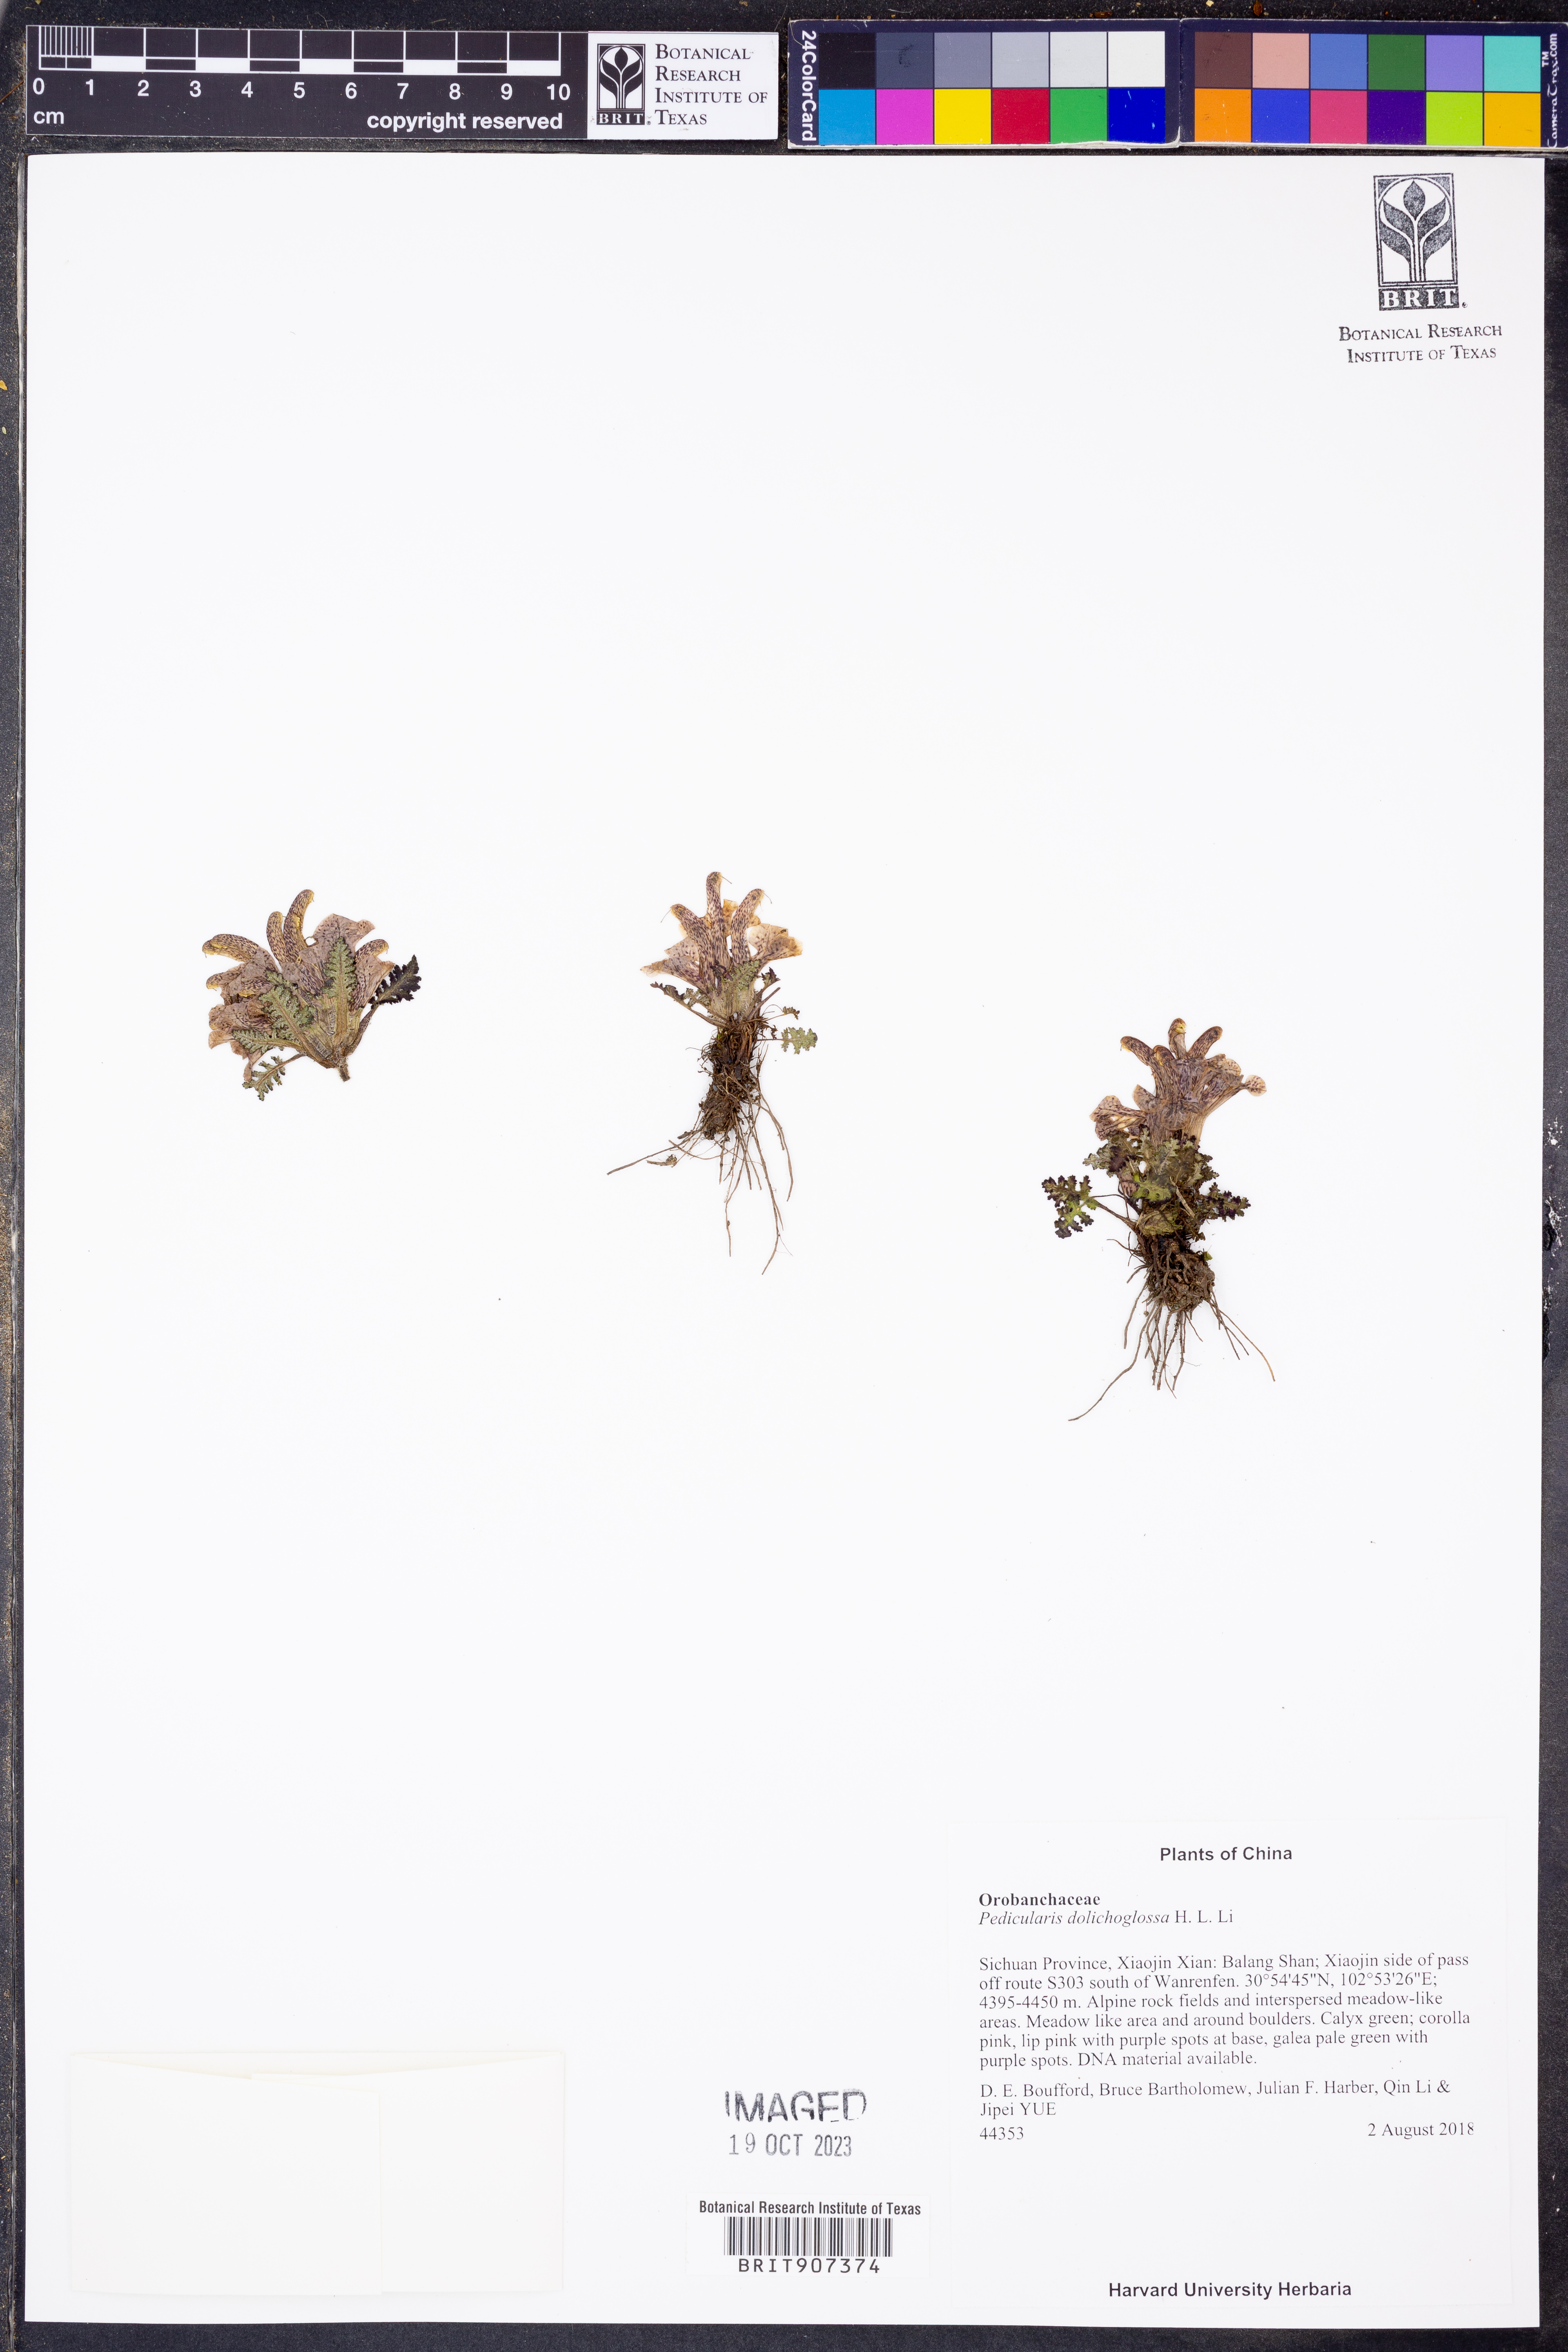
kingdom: Plantae
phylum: Tracheophyta
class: Magnoliopsida
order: Lamiales
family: Orobanchaceae
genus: Pedicularis
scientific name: Pedicularis dolichoglossa
